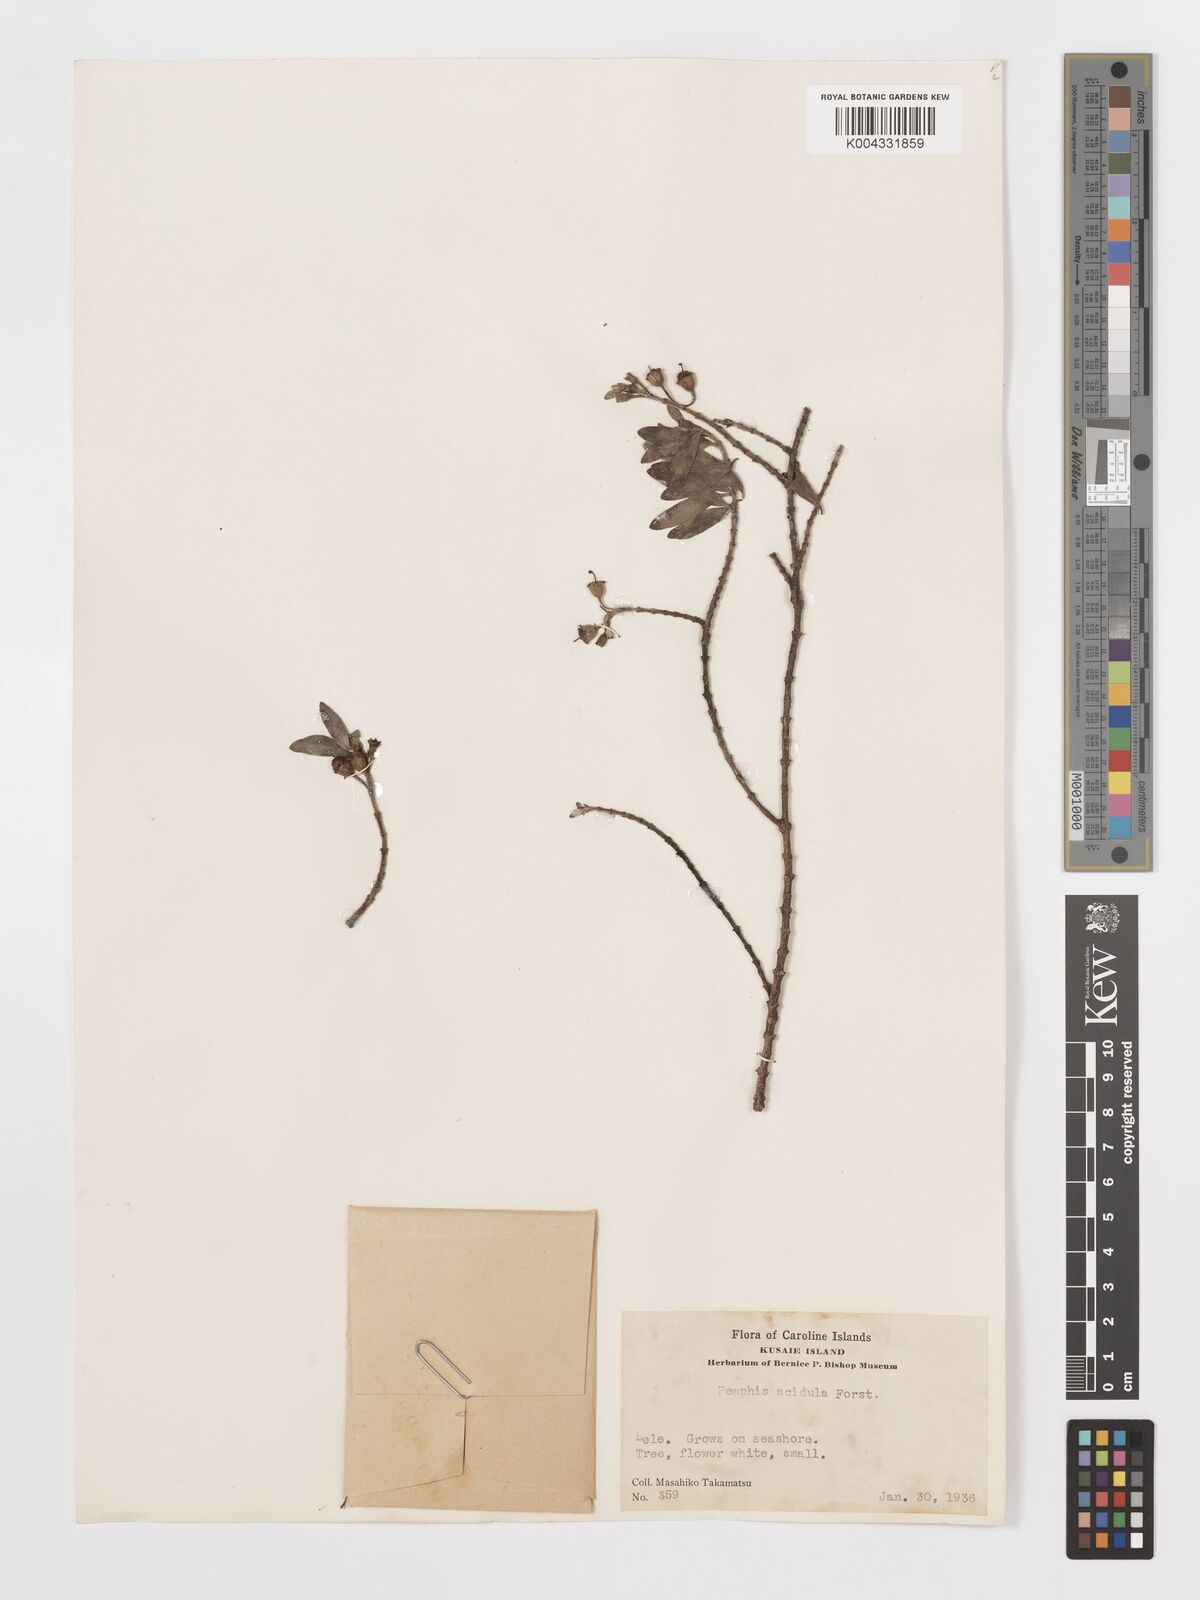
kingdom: Plantae
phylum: Tracheophyta
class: Magnoliopsida
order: Myrtales
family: Lythraceae
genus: Pemphis
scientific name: Pemphis acidula
